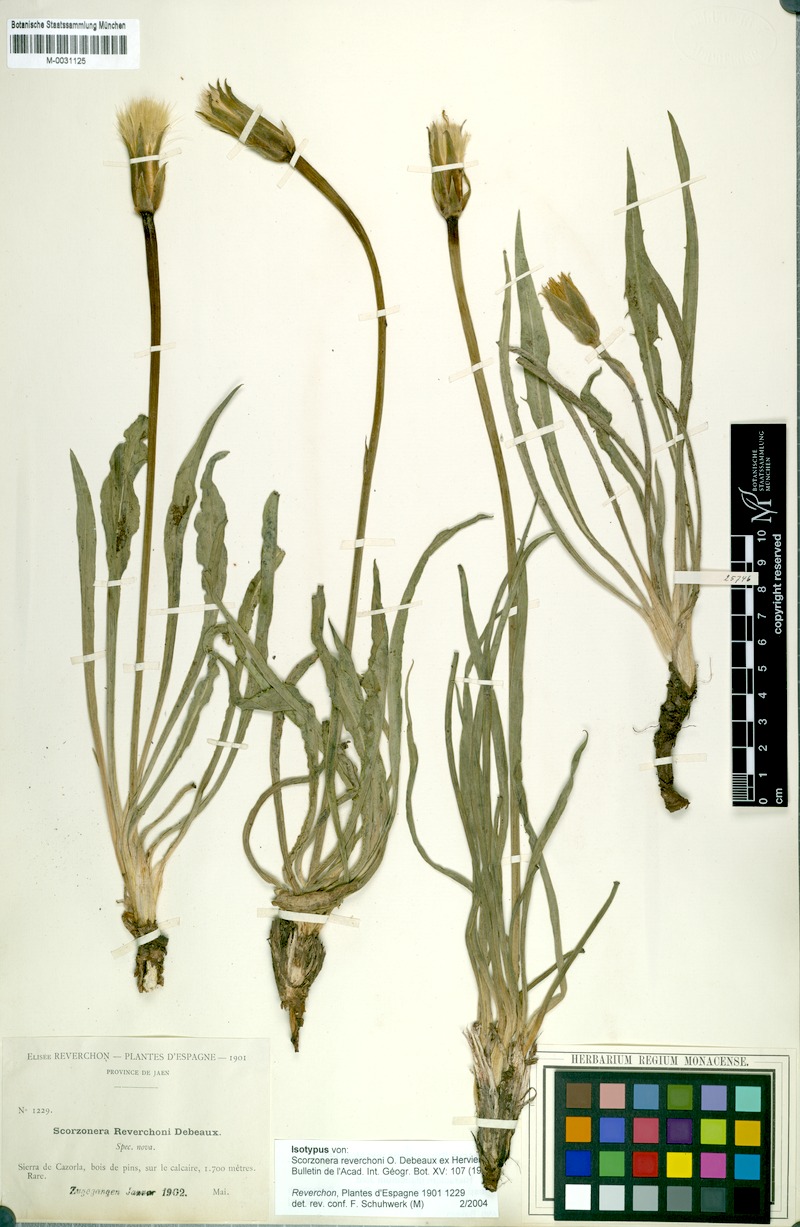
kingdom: Plantae
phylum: Tracheophyta
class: Magnoliopsida
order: Asterales
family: Asteraceae
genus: Pseudopodospermum
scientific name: Pseudopodospermum reverchonii
